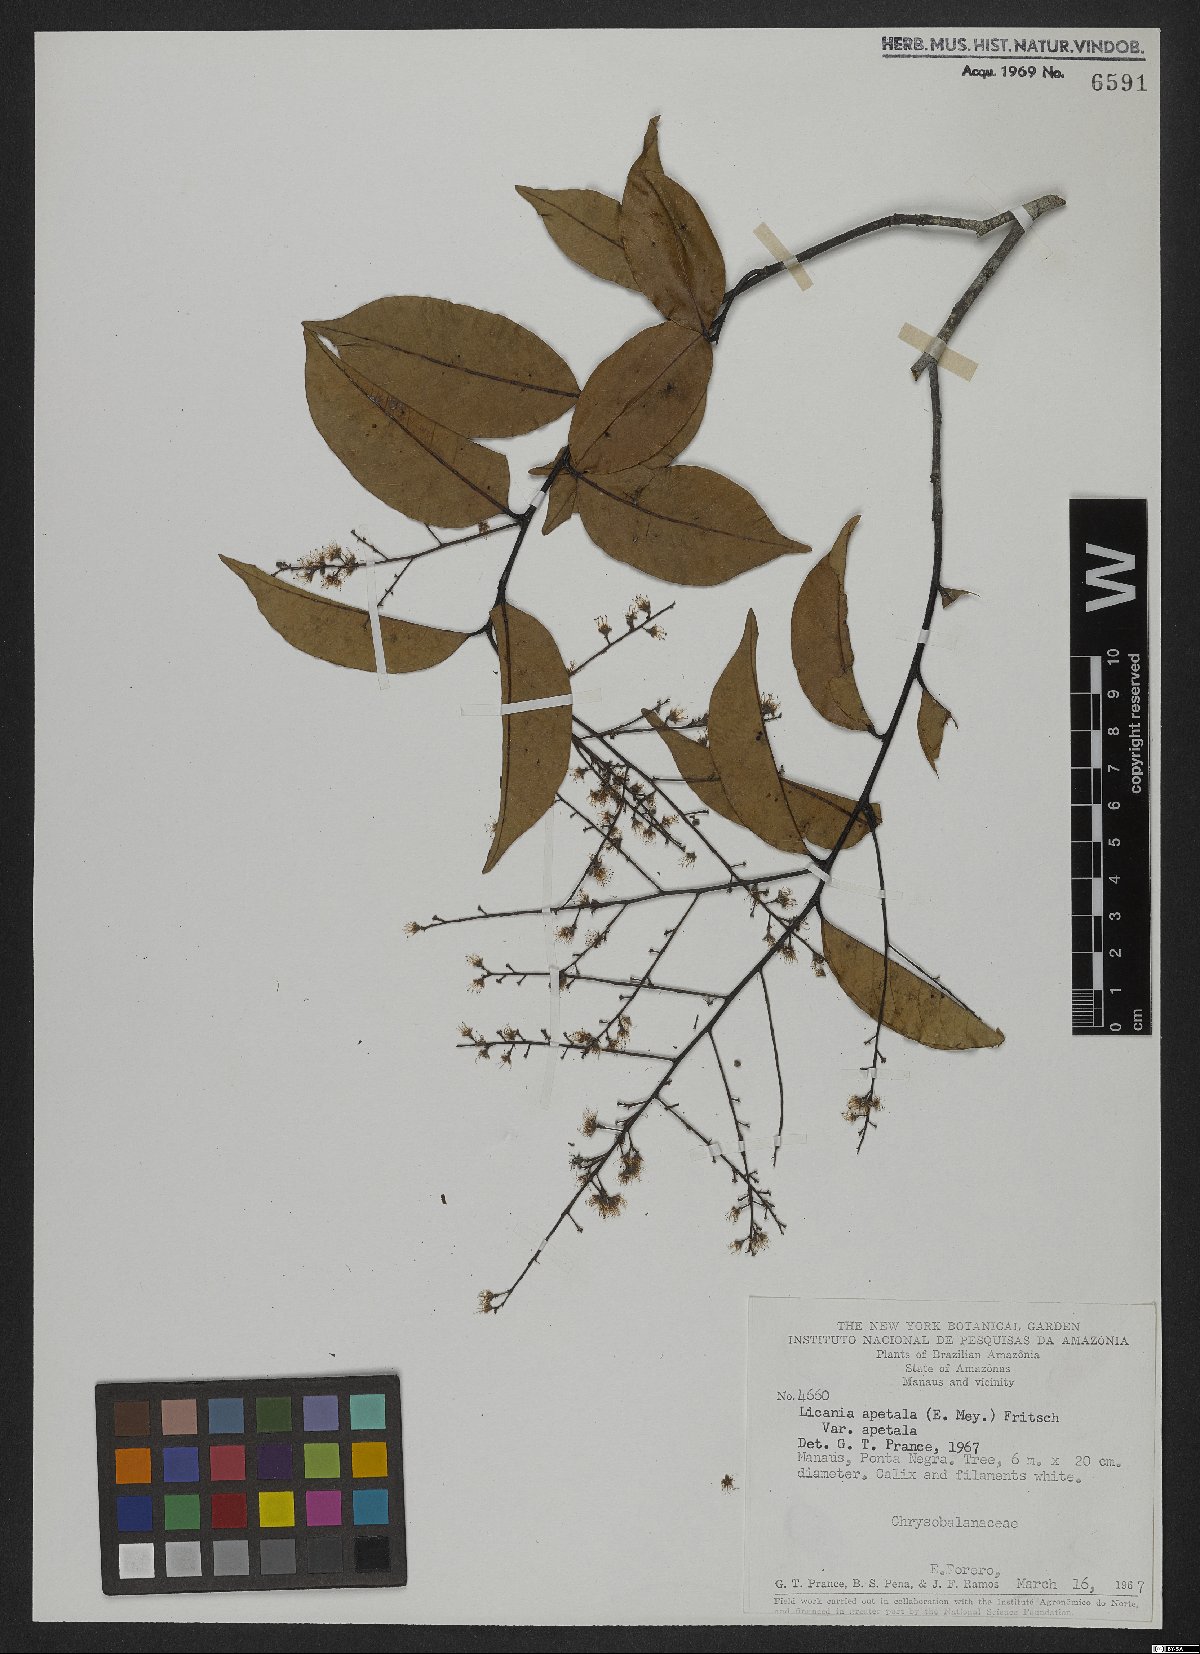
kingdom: Plantae
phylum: Tracheophyta
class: Magnoliopsida
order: Malpighiales
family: Chrysobalanaceae
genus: Leptobalanus
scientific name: Leptobalanus apetalus
